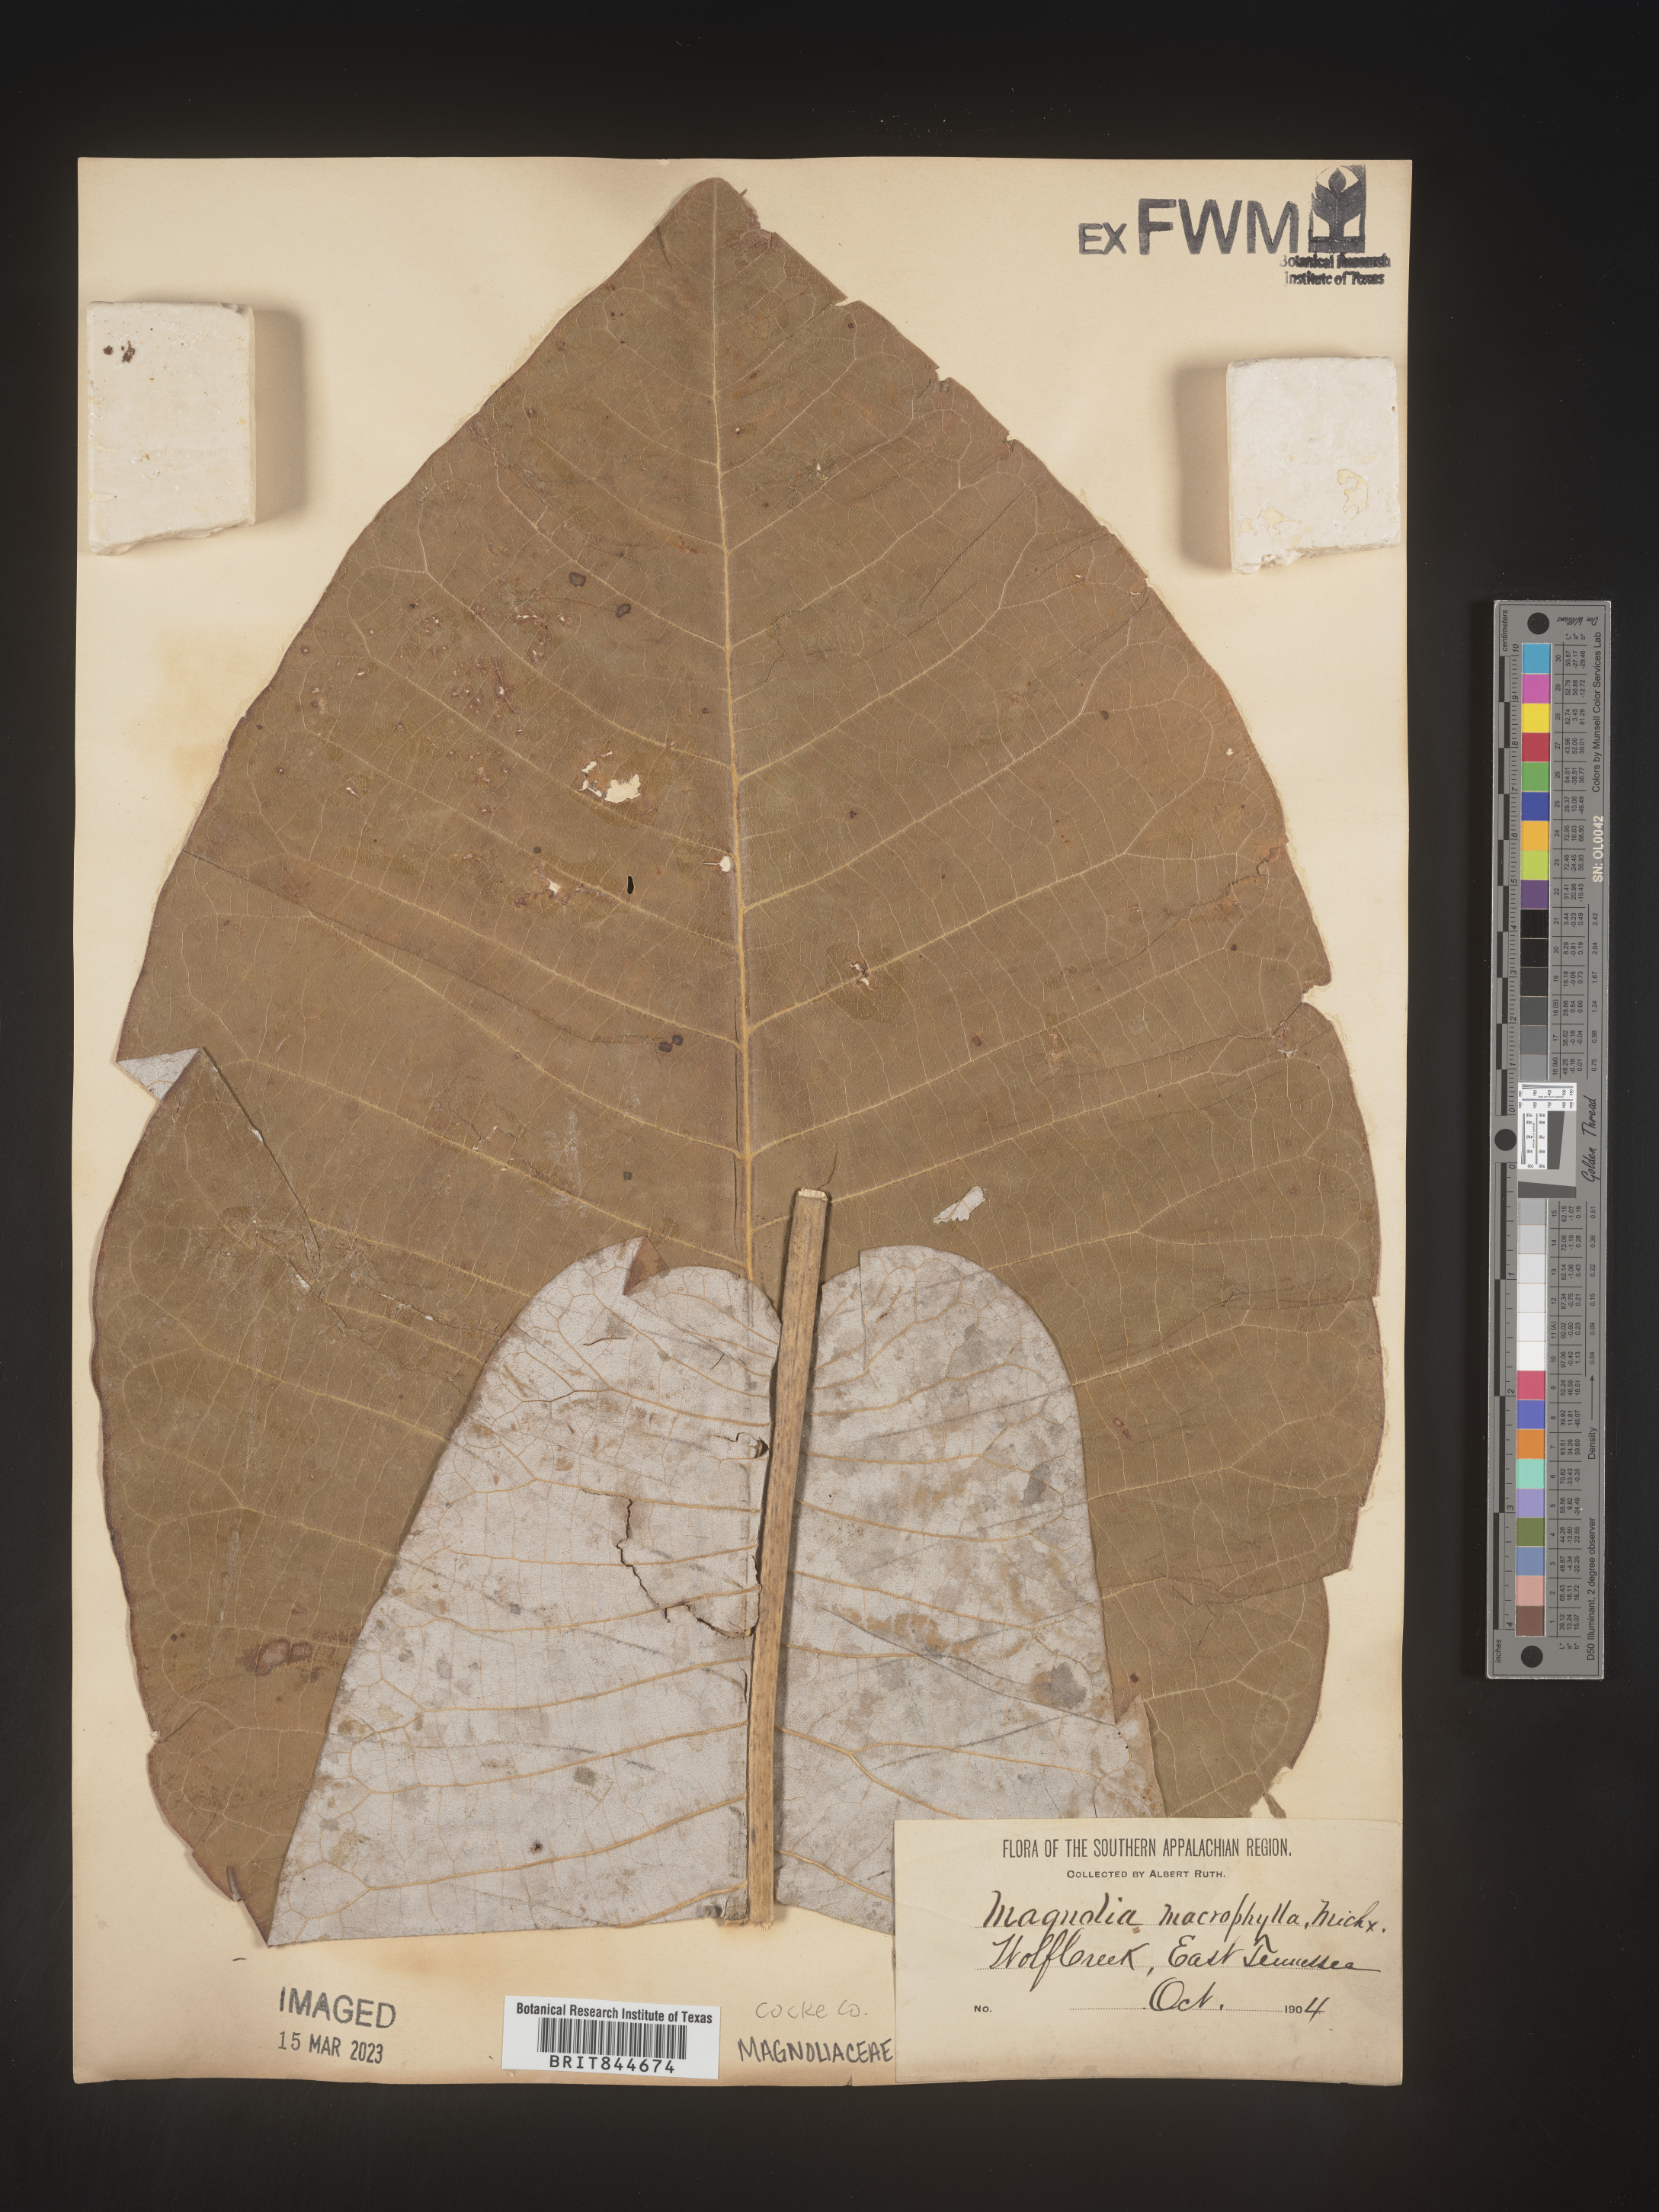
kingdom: Plantae
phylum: Tracheophyta
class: Magnoliopsida
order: Magnoliales
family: Magnoliaceae
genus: Magnolia
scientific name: Magnolia macrophylla
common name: Big-leaf magnolia
